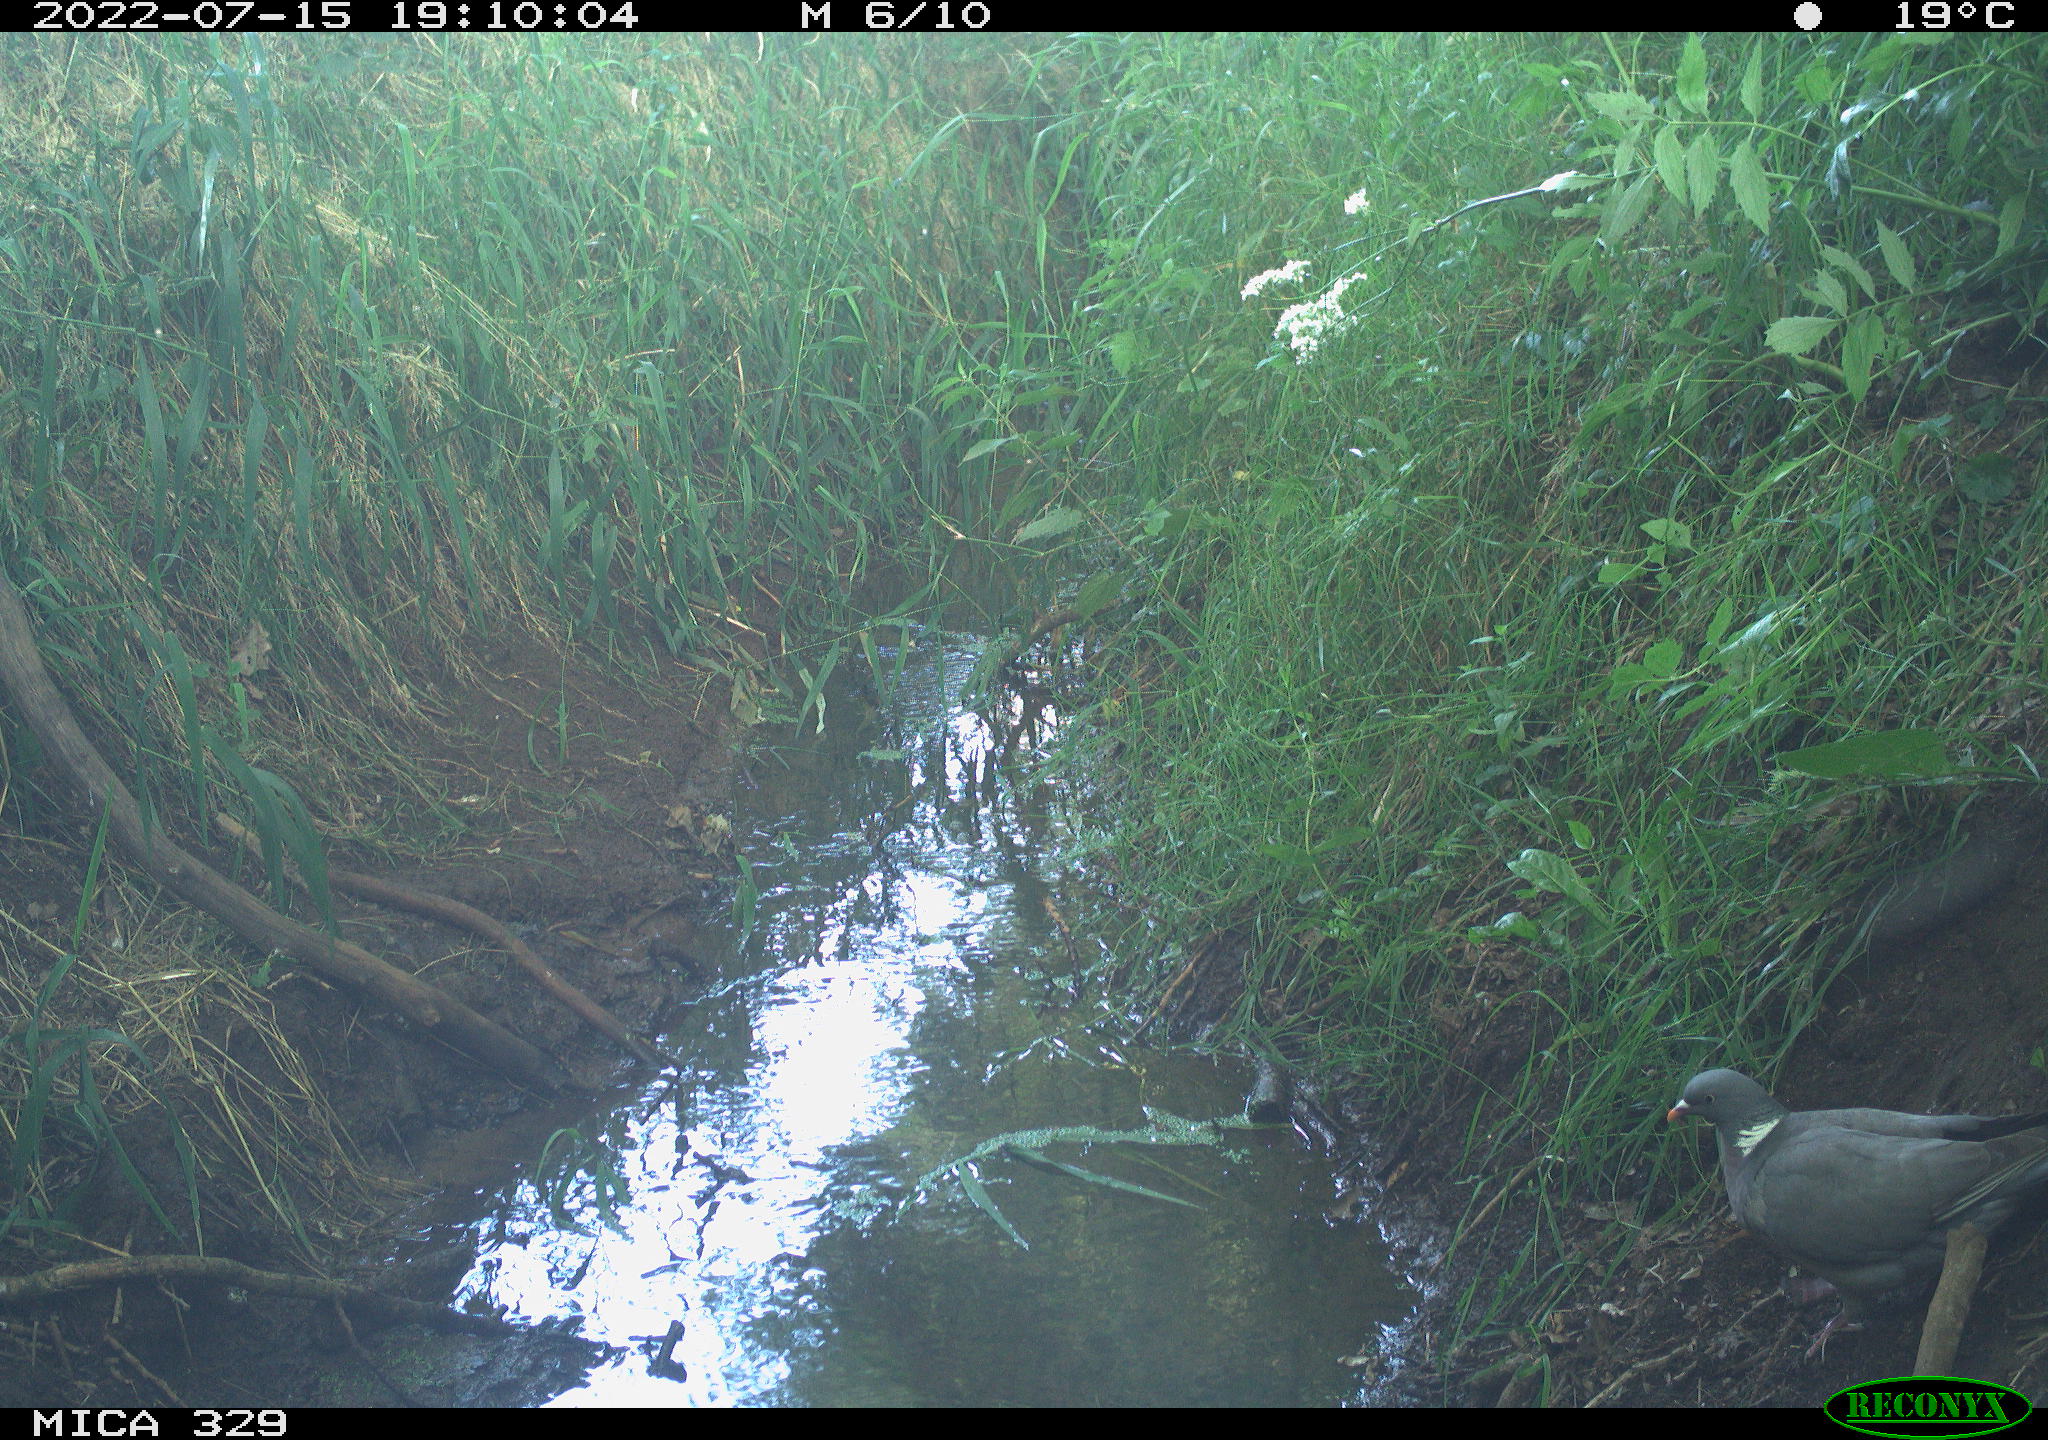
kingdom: Animalia
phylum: Chordata
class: Mammalia
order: Rodentia
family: Sciuridae
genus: Sciurus
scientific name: Sciurus vulgaris
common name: Eurasian red squirrel
